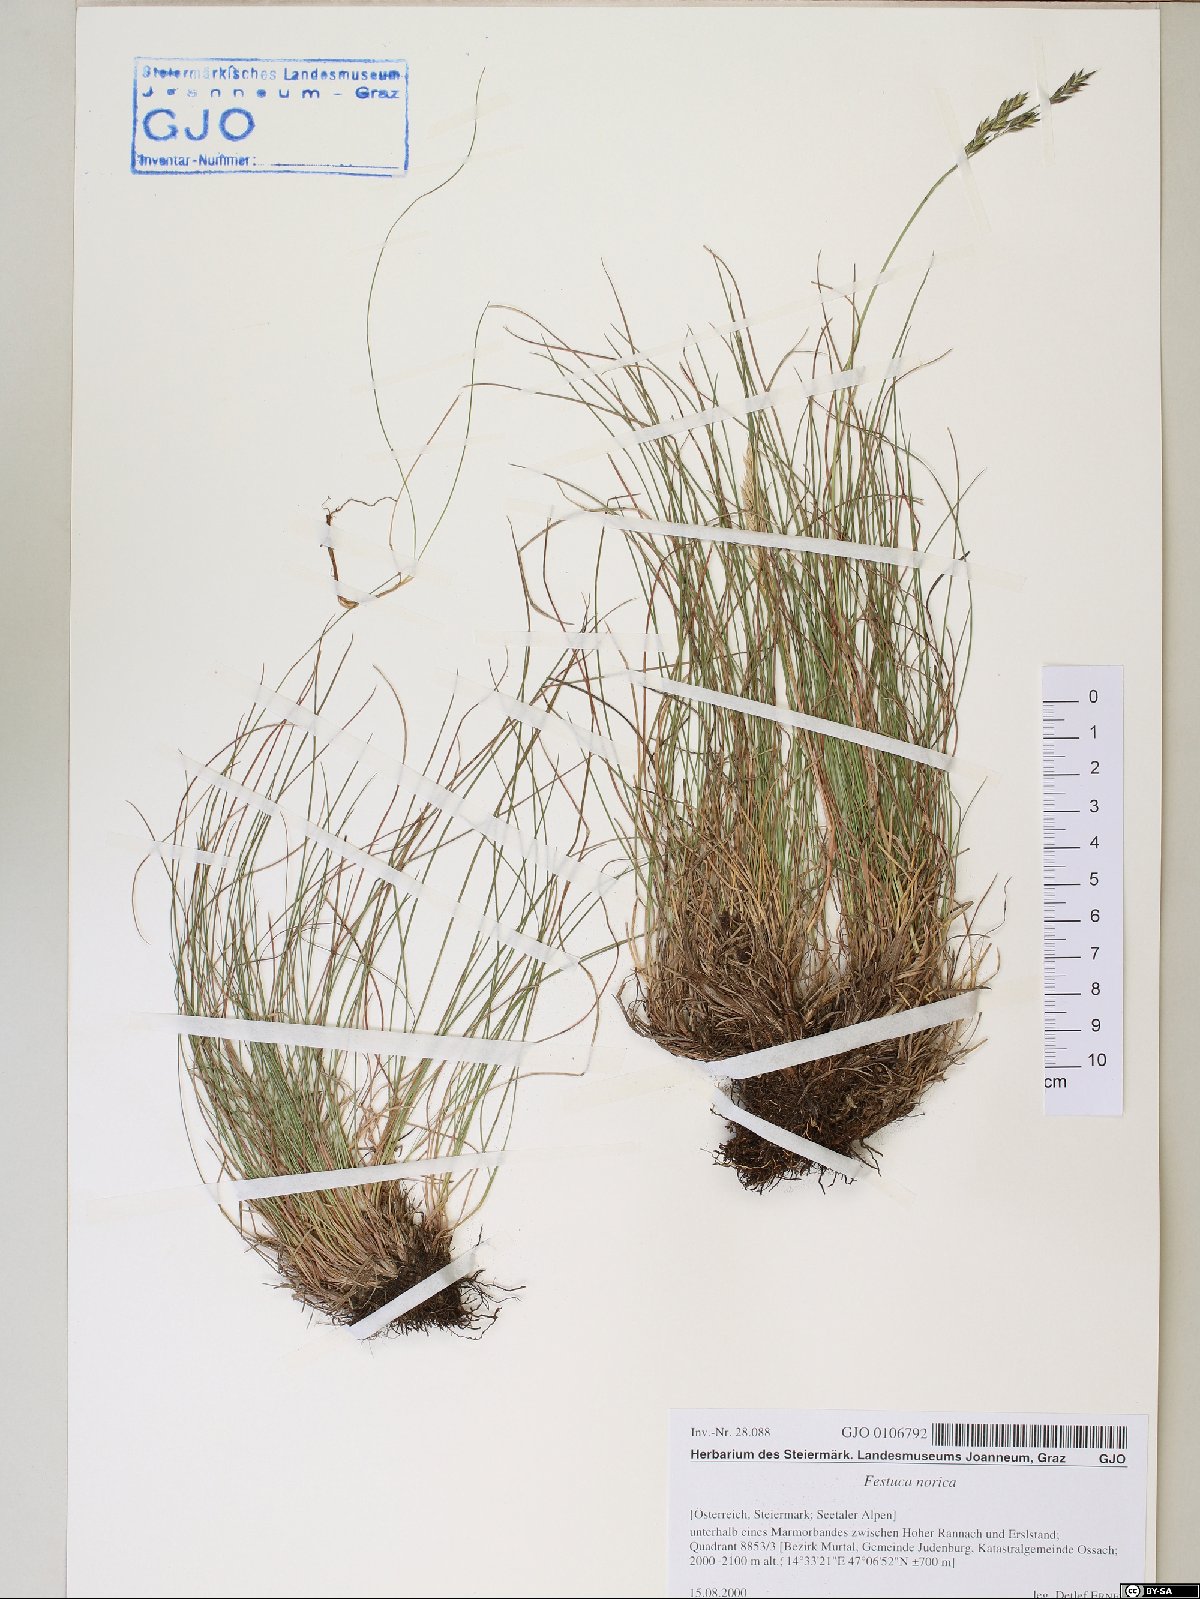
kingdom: Plantae
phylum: Tracheophyta
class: Liliopsida
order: Poales
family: Poaceae
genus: Festuca
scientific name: Festuca norica
